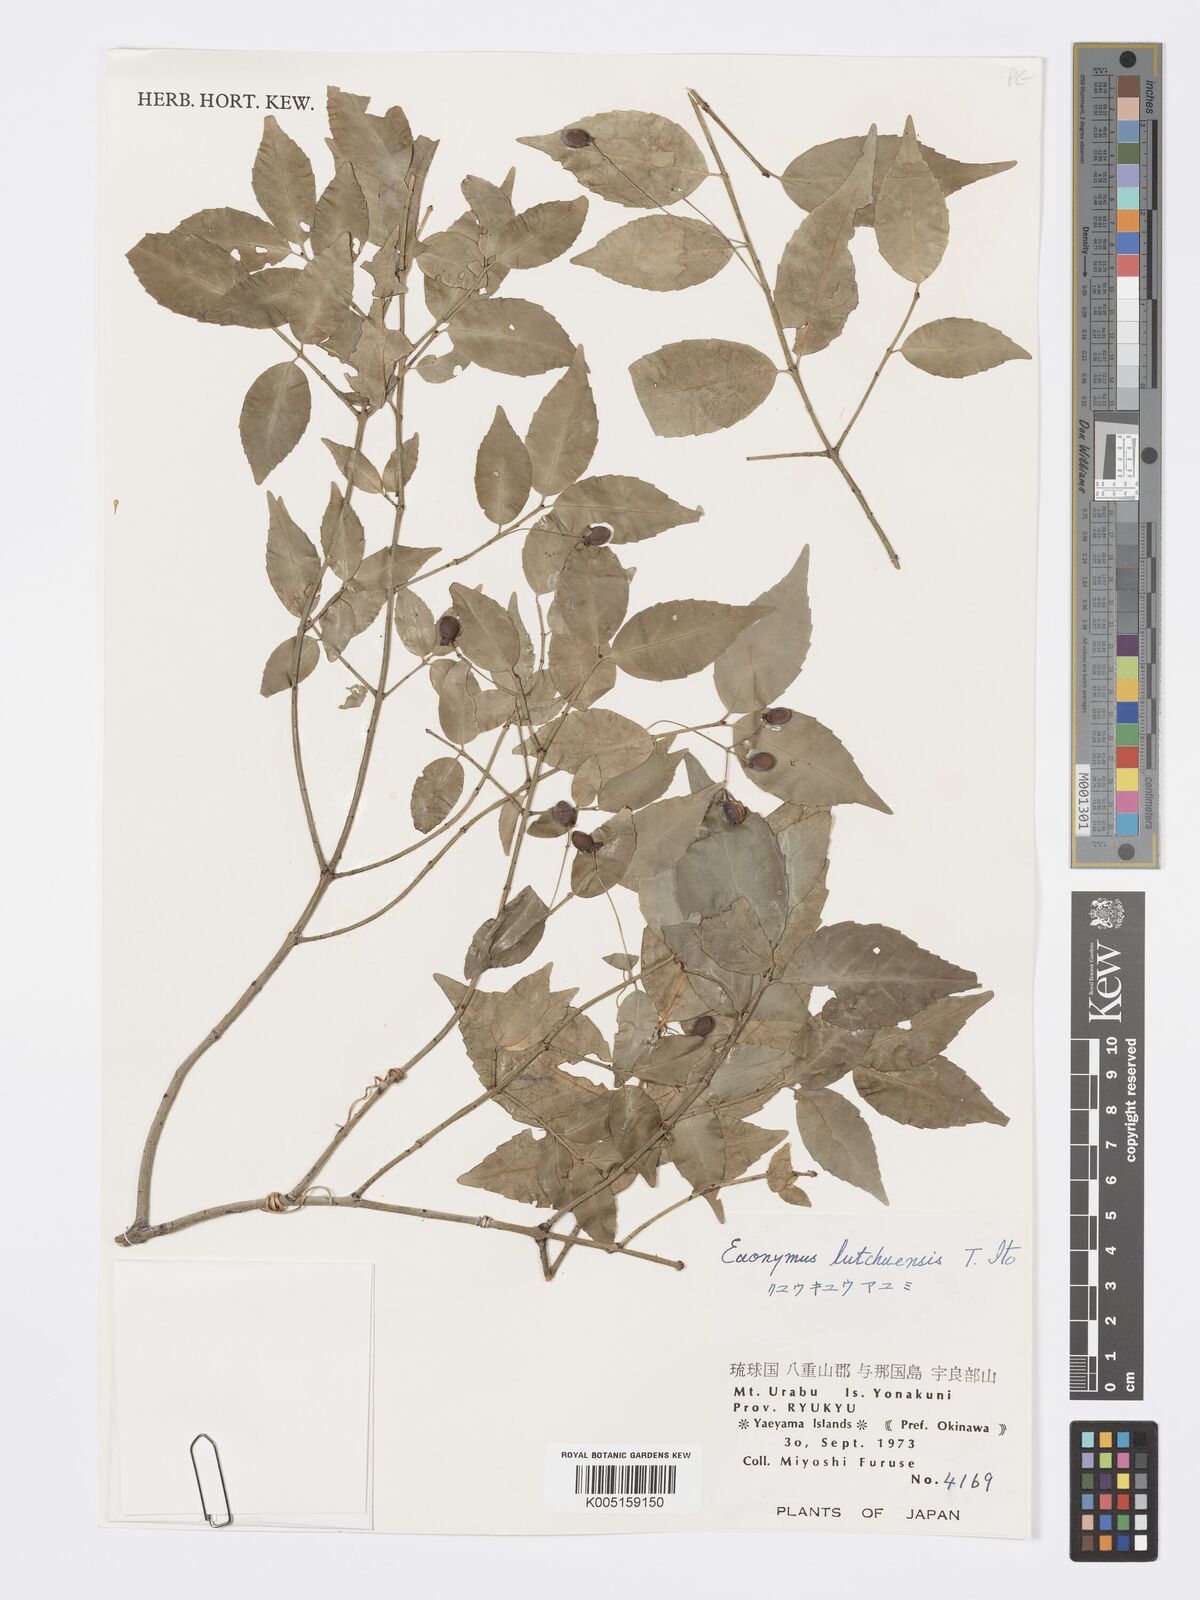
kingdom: Plantae
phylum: Tracheophyta
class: Magnoliopsida
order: Celastrales
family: Celastraceae
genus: Euonymus
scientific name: Euonymus lutchuensis
